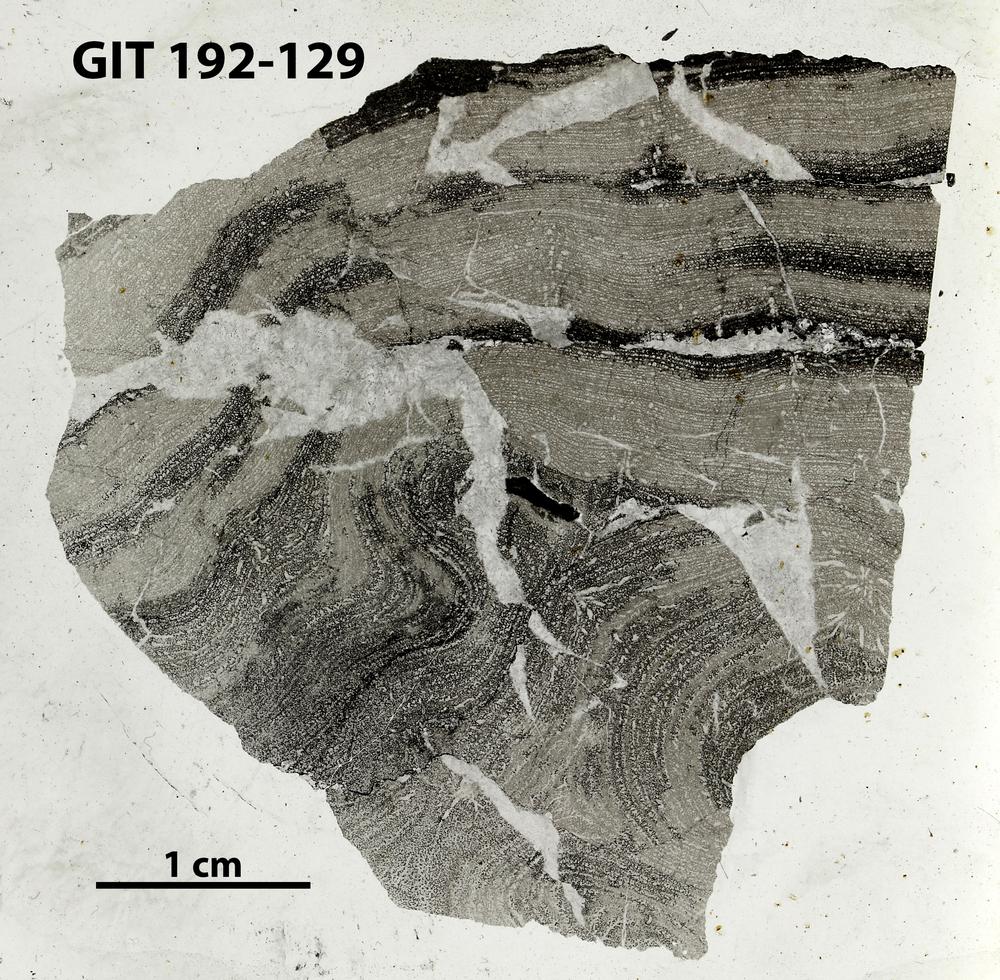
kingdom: Animalia
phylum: Porifera
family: Clathrodictyidae
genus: Clathrodictyon
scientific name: Clathrodictyon
